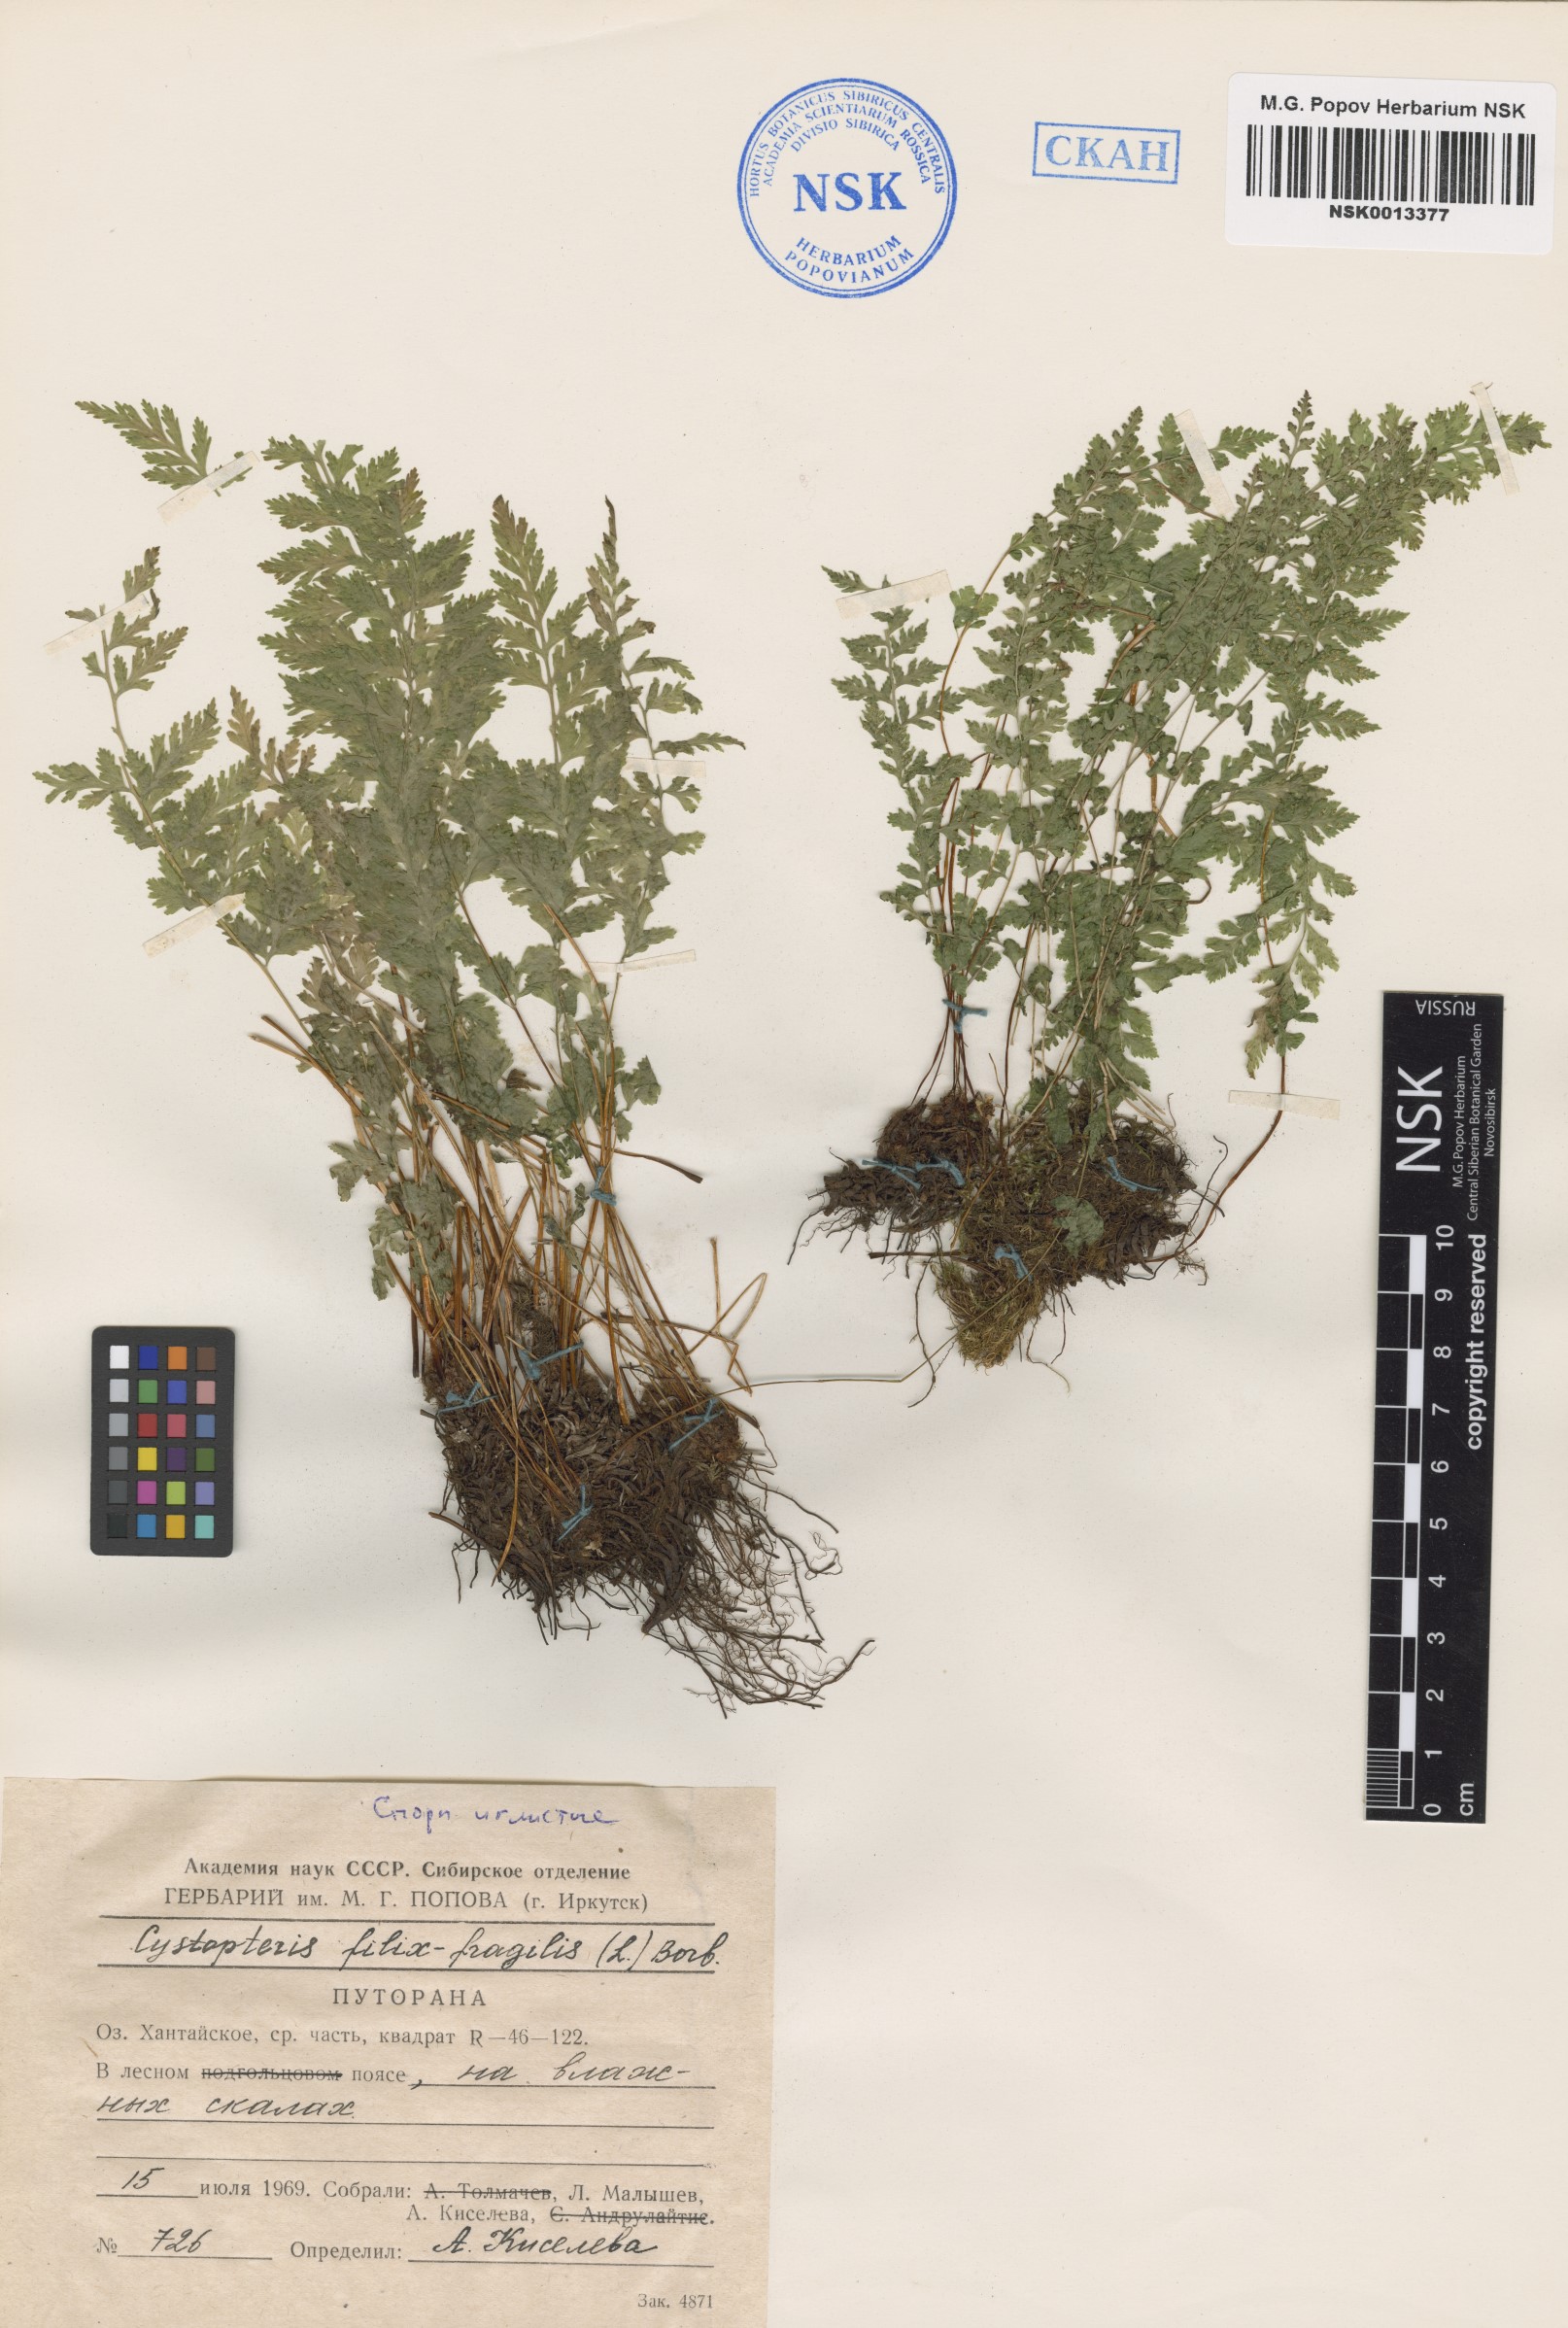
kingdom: Plantae
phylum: Tracheophyta
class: Polypodiopsida
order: Polypodiales
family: Cystopteridaceae
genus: Cystopteris
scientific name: Cystopteris fragilis
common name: Brittle bladder fern
